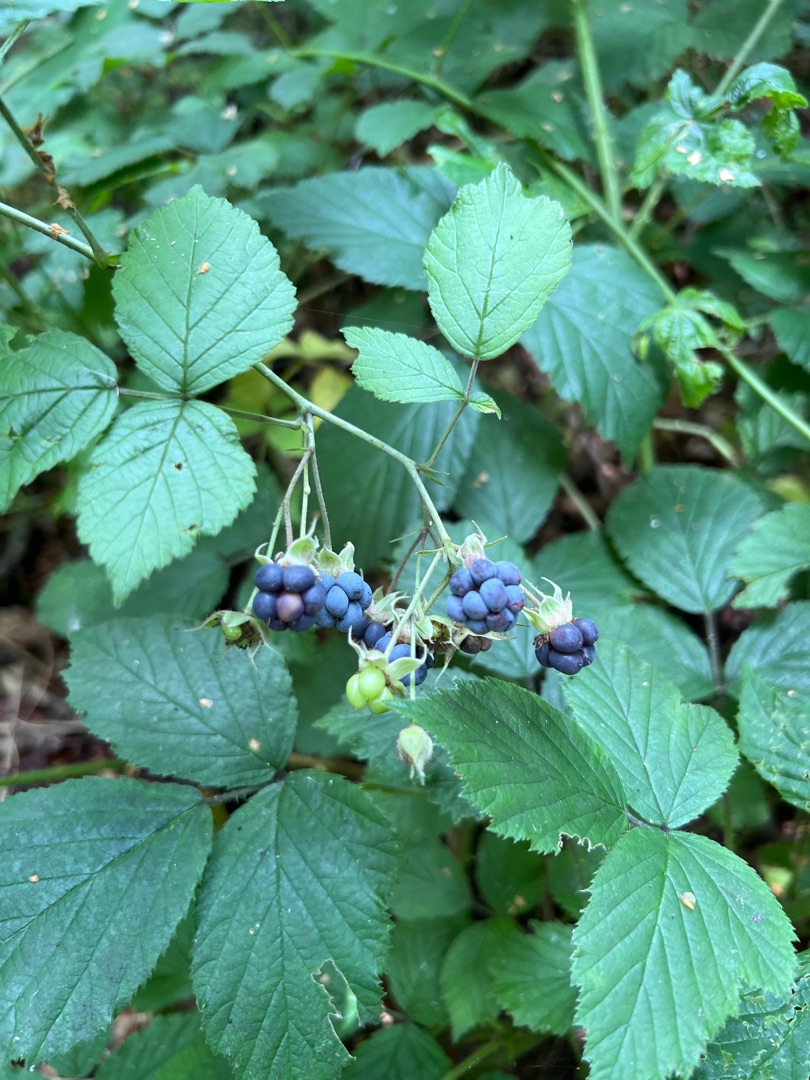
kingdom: Plantae
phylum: Tracheophyta
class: Magnoliopsida
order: Rosales
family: Rosaceae
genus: Rubus
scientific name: Rubus caesius
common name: Korbær
